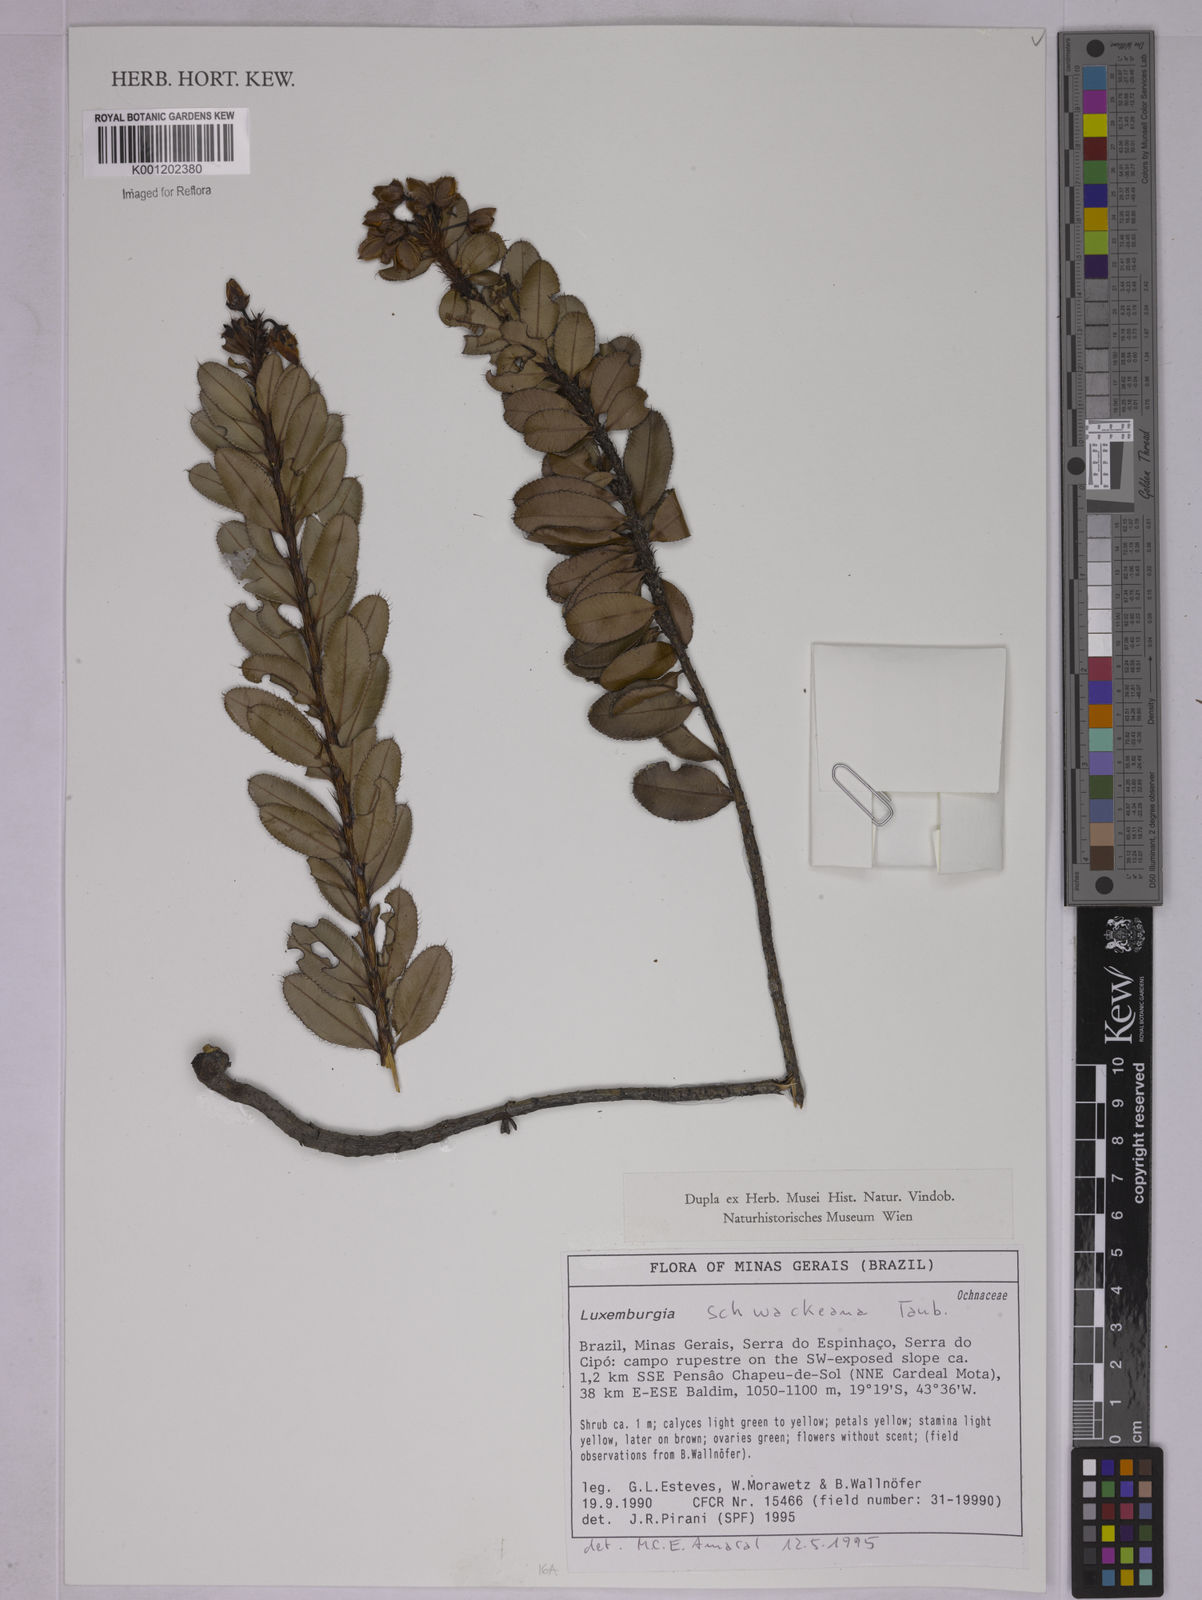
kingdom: Plantae
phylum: Tracheophyta
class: Magnoliopsida
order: Malpighiales
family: Ochnaceae
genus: Luxemburgia
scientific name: Luxemburgia schwackeana
